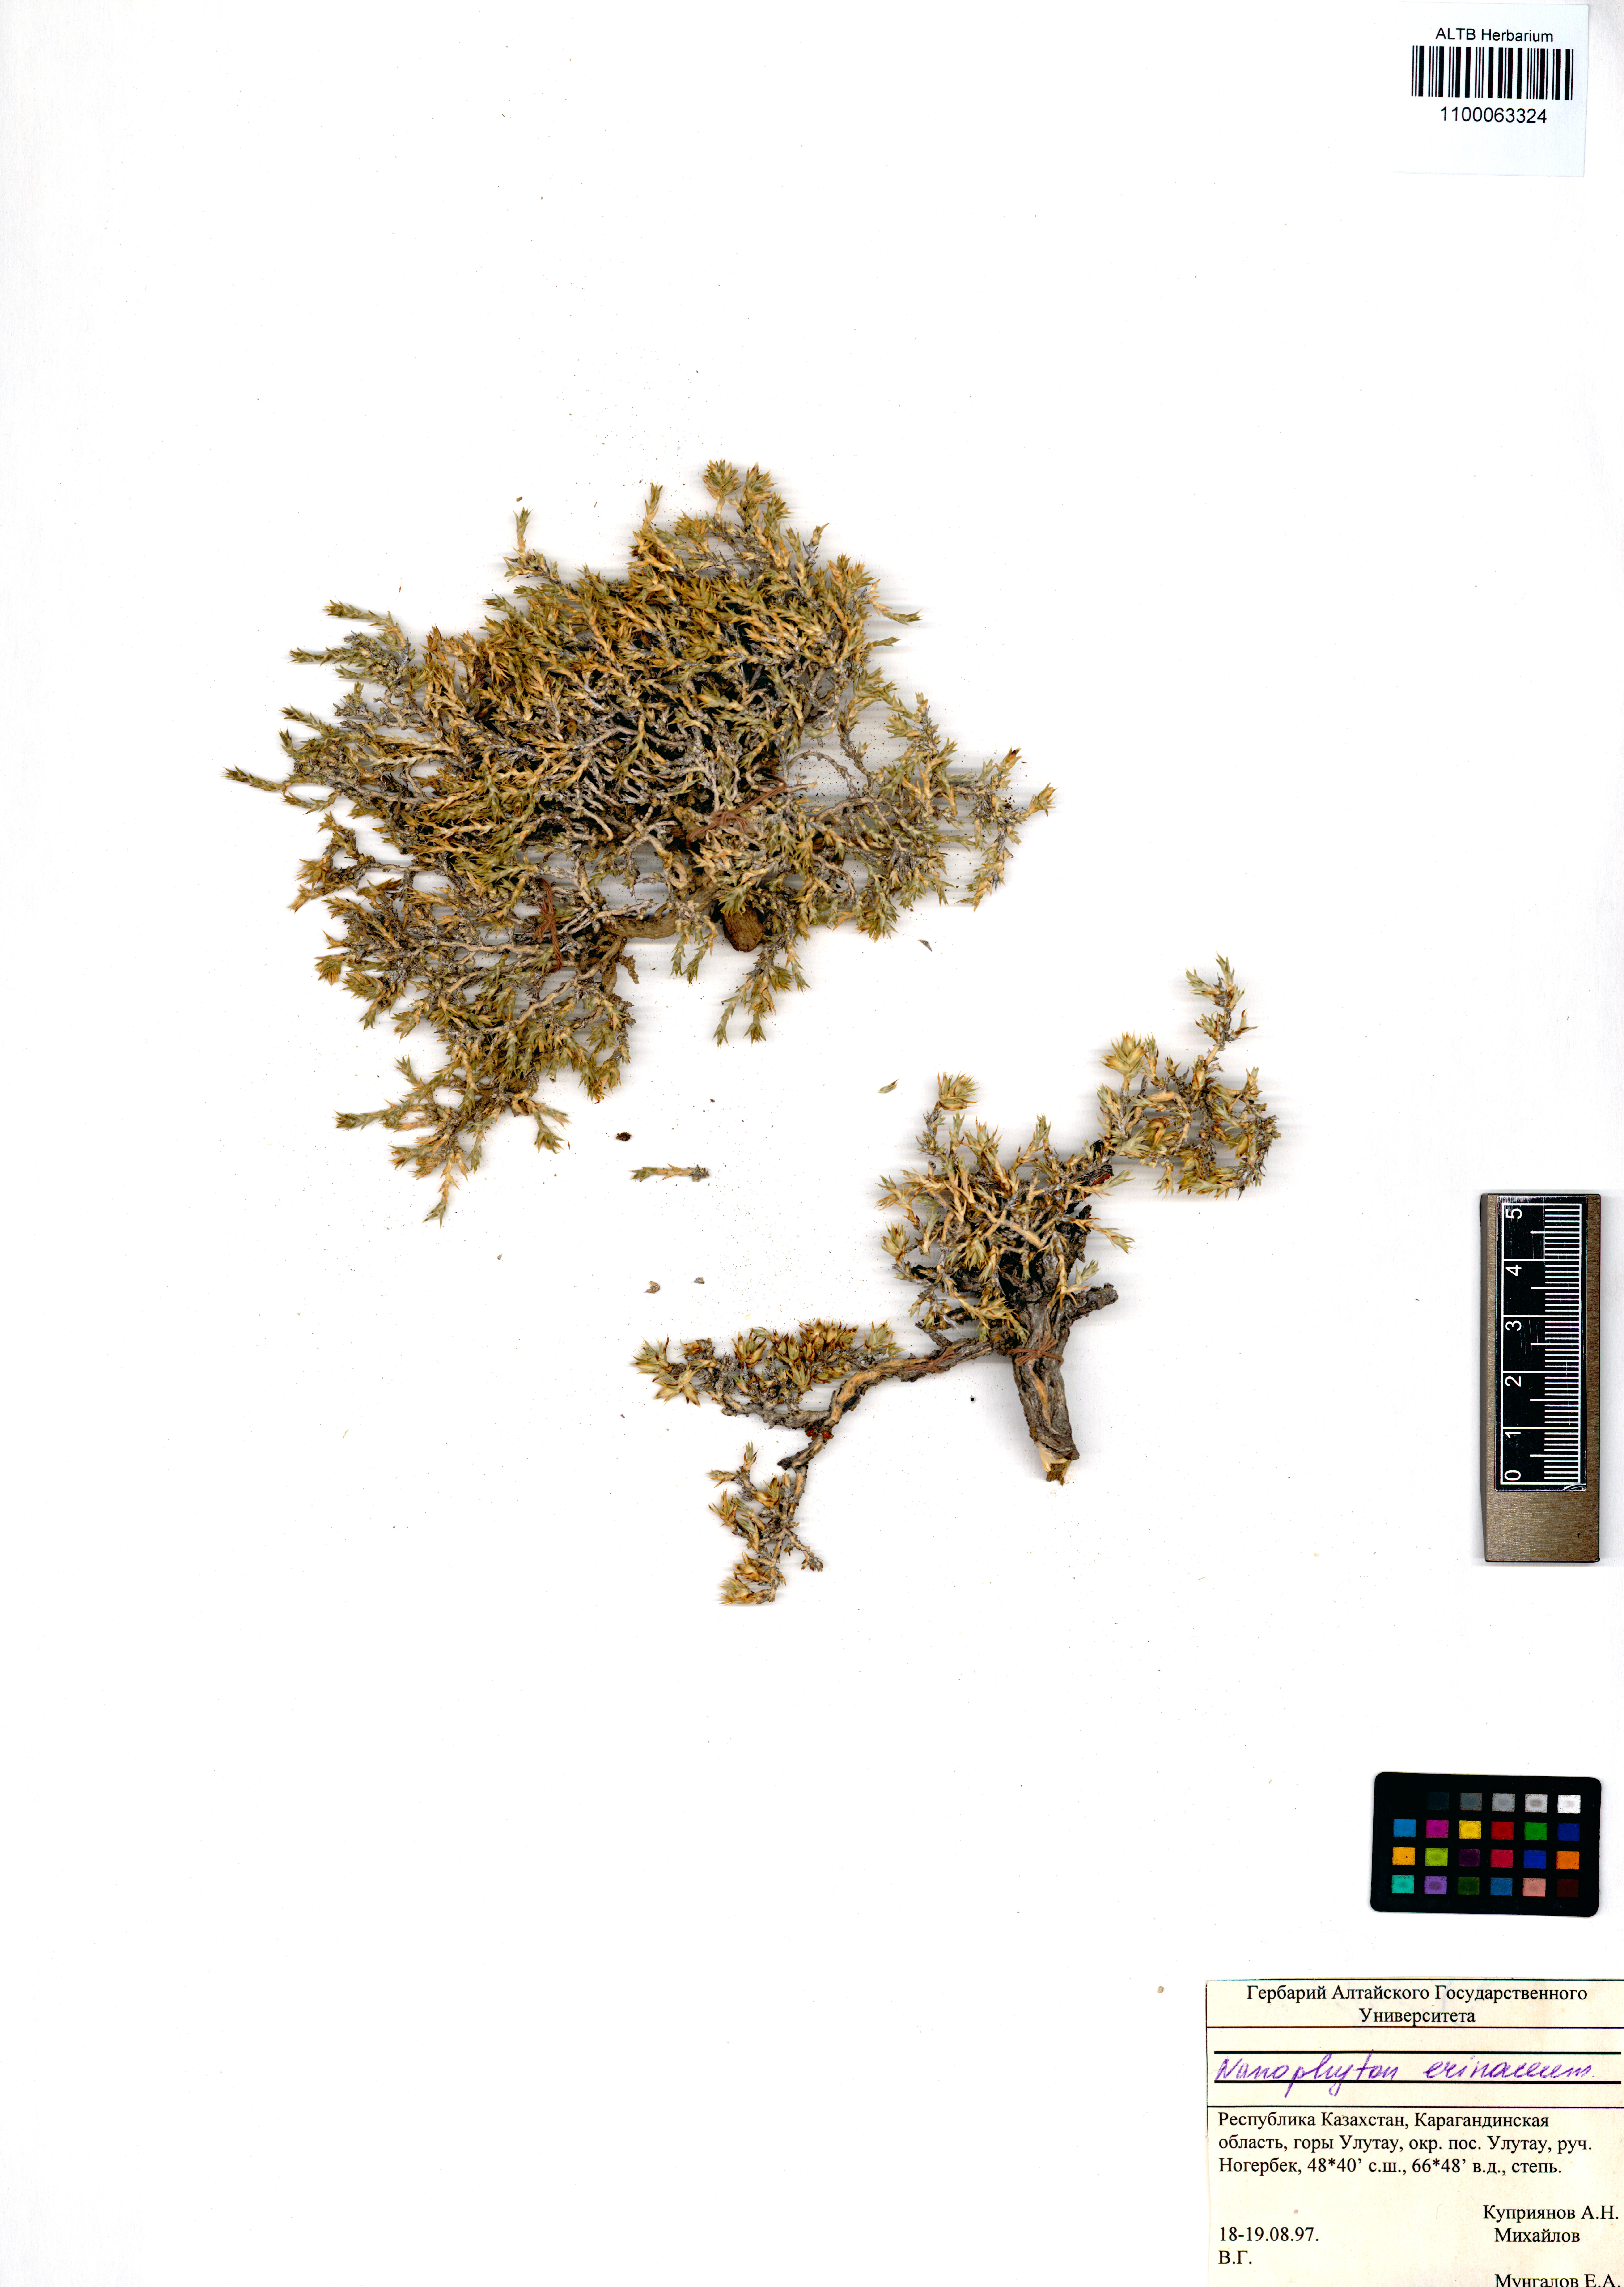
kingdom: Plantae
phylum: Tracheophyta
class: Magnoliopsida
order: Caryophyllales
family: Amaranthaceae
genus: Nanophyton
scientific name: Nanophyton erinaceum
